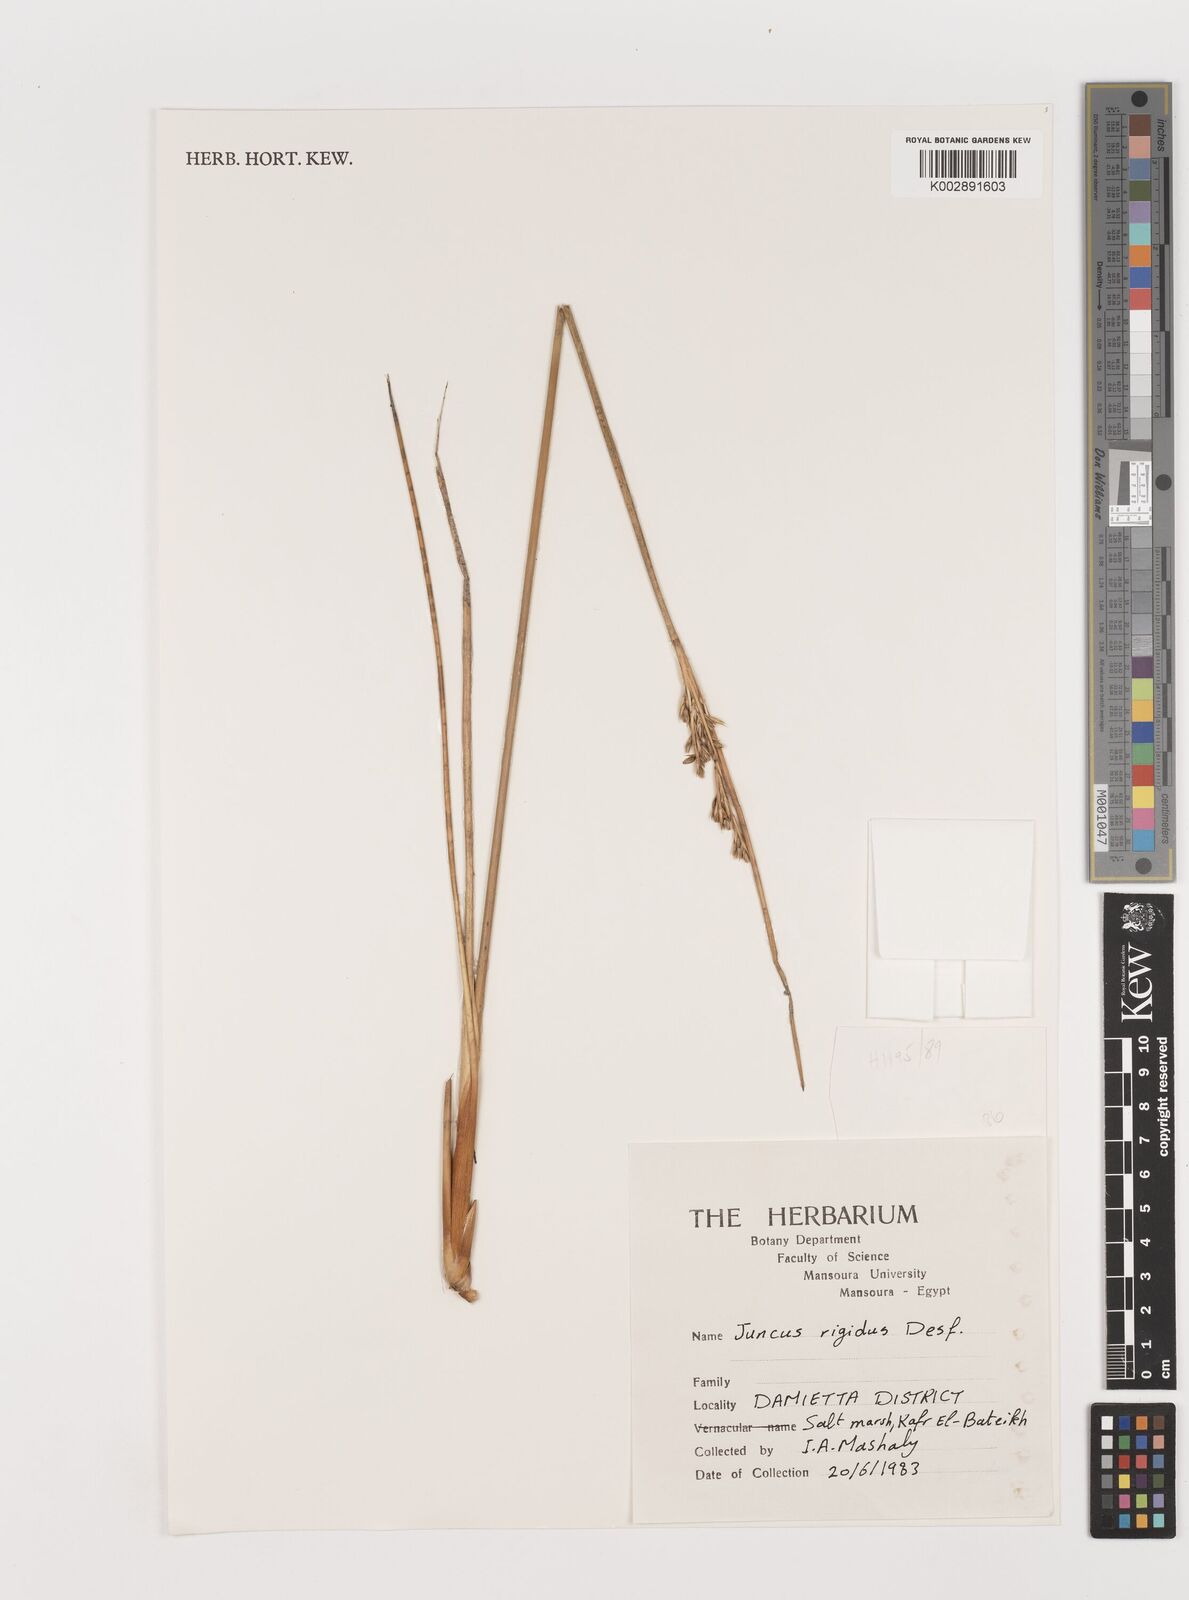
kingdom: Plantae
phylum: Tracheophyta
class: Liliopsida
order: Poales
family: Juncaceae
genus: Juncus
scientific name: Juncus rigidus
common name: Hard sea rush
